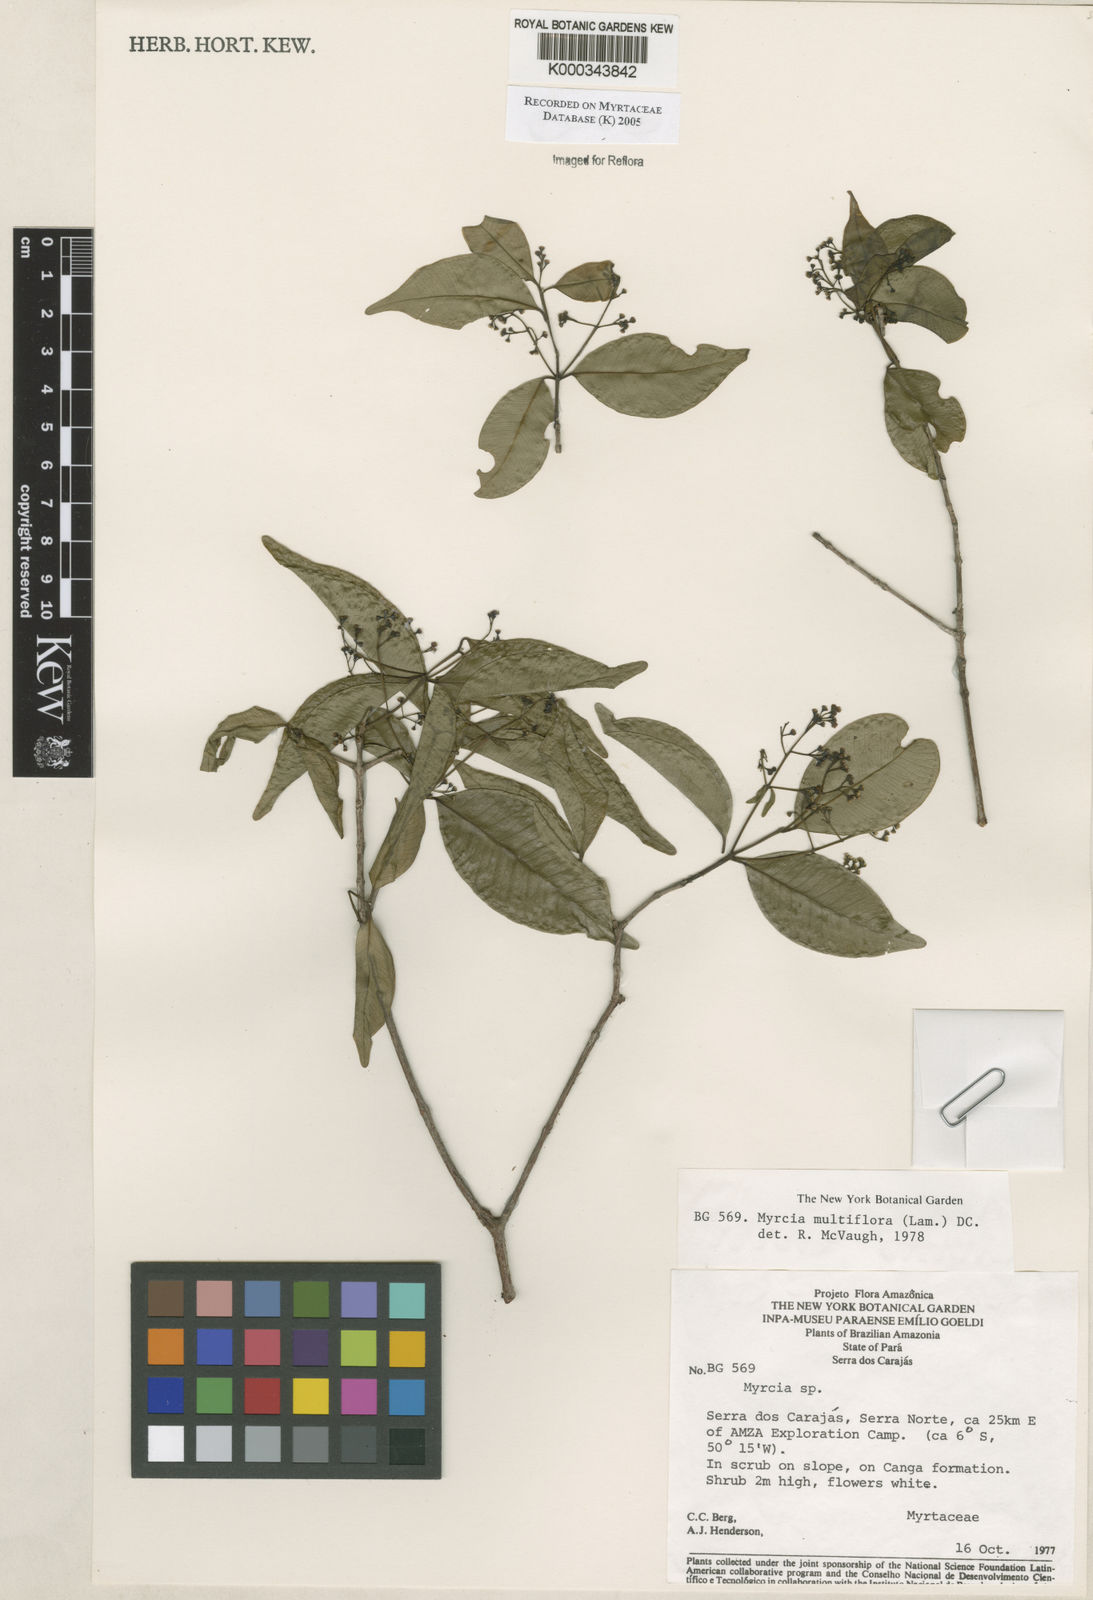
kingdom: Plantae
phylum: Tracheophyta
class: Magnoliopsida
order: Myrtales
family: Myrtaceae
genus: Myrcia
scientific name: Myrcia multiflora
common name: Pedra hume
